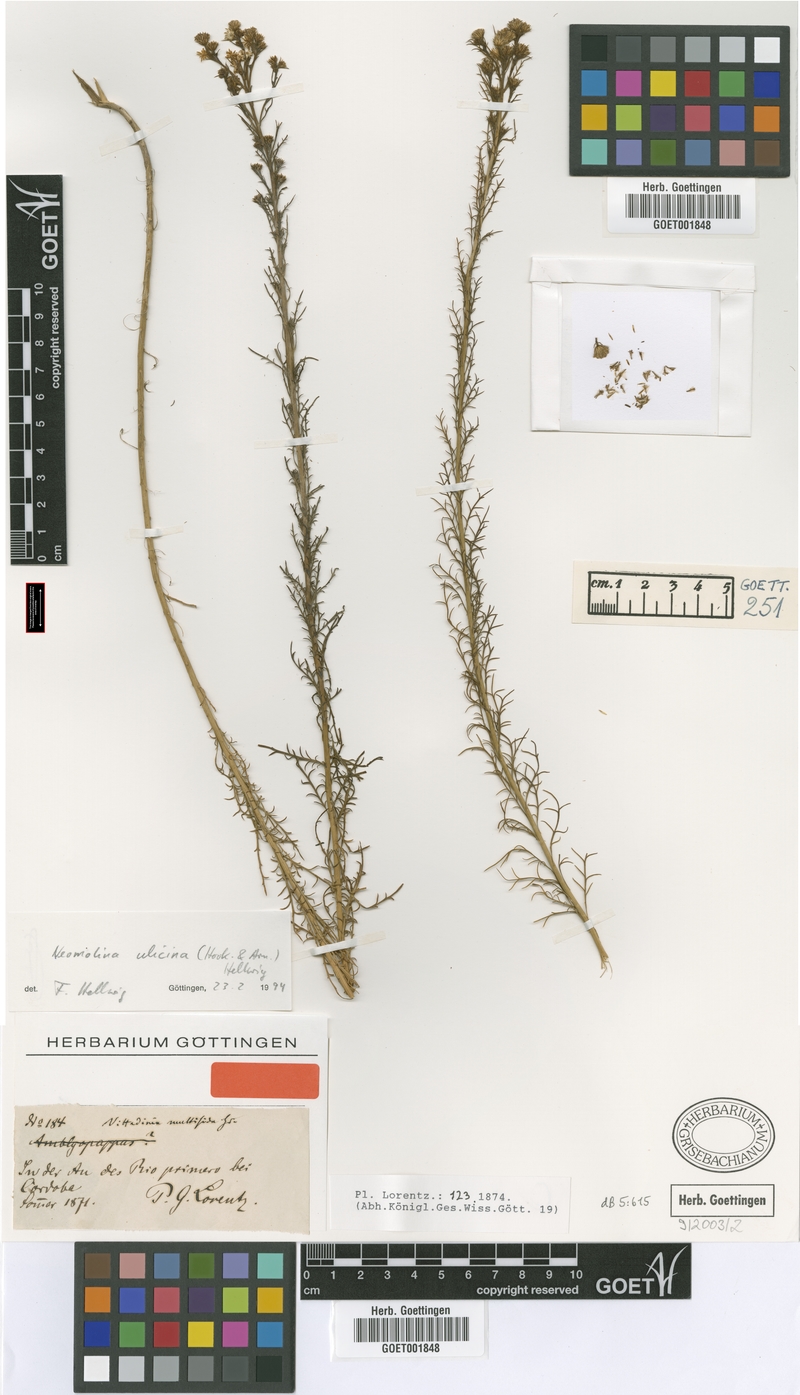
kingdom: Plantae
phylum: Tracheophyta
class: Magnoliopsida
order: Asterales
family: Asteraceae
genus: Baccharis
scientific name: Baccharis ulicina
